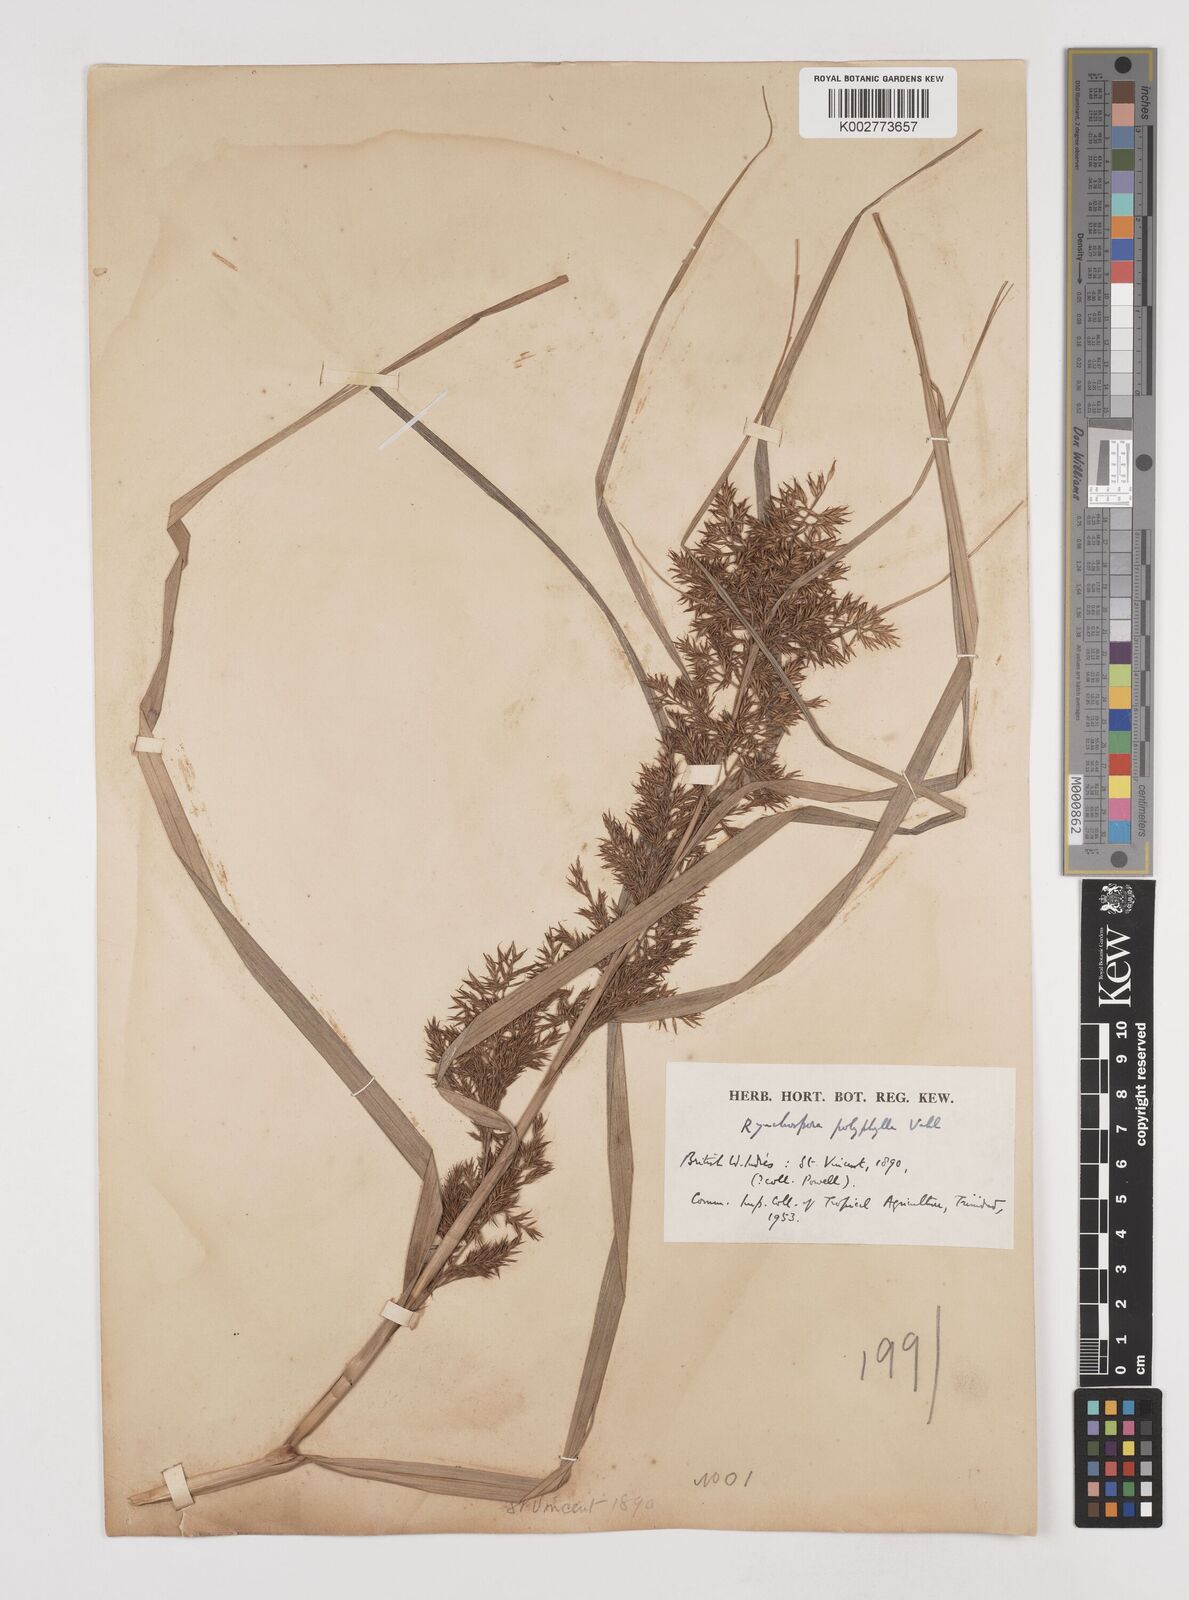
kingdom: Plantae
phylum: Tracheophyta
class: Liliopsida
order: Poales
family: Cyperaceae
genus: Rhynchospora
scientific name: Rhynchospora polyphylla
